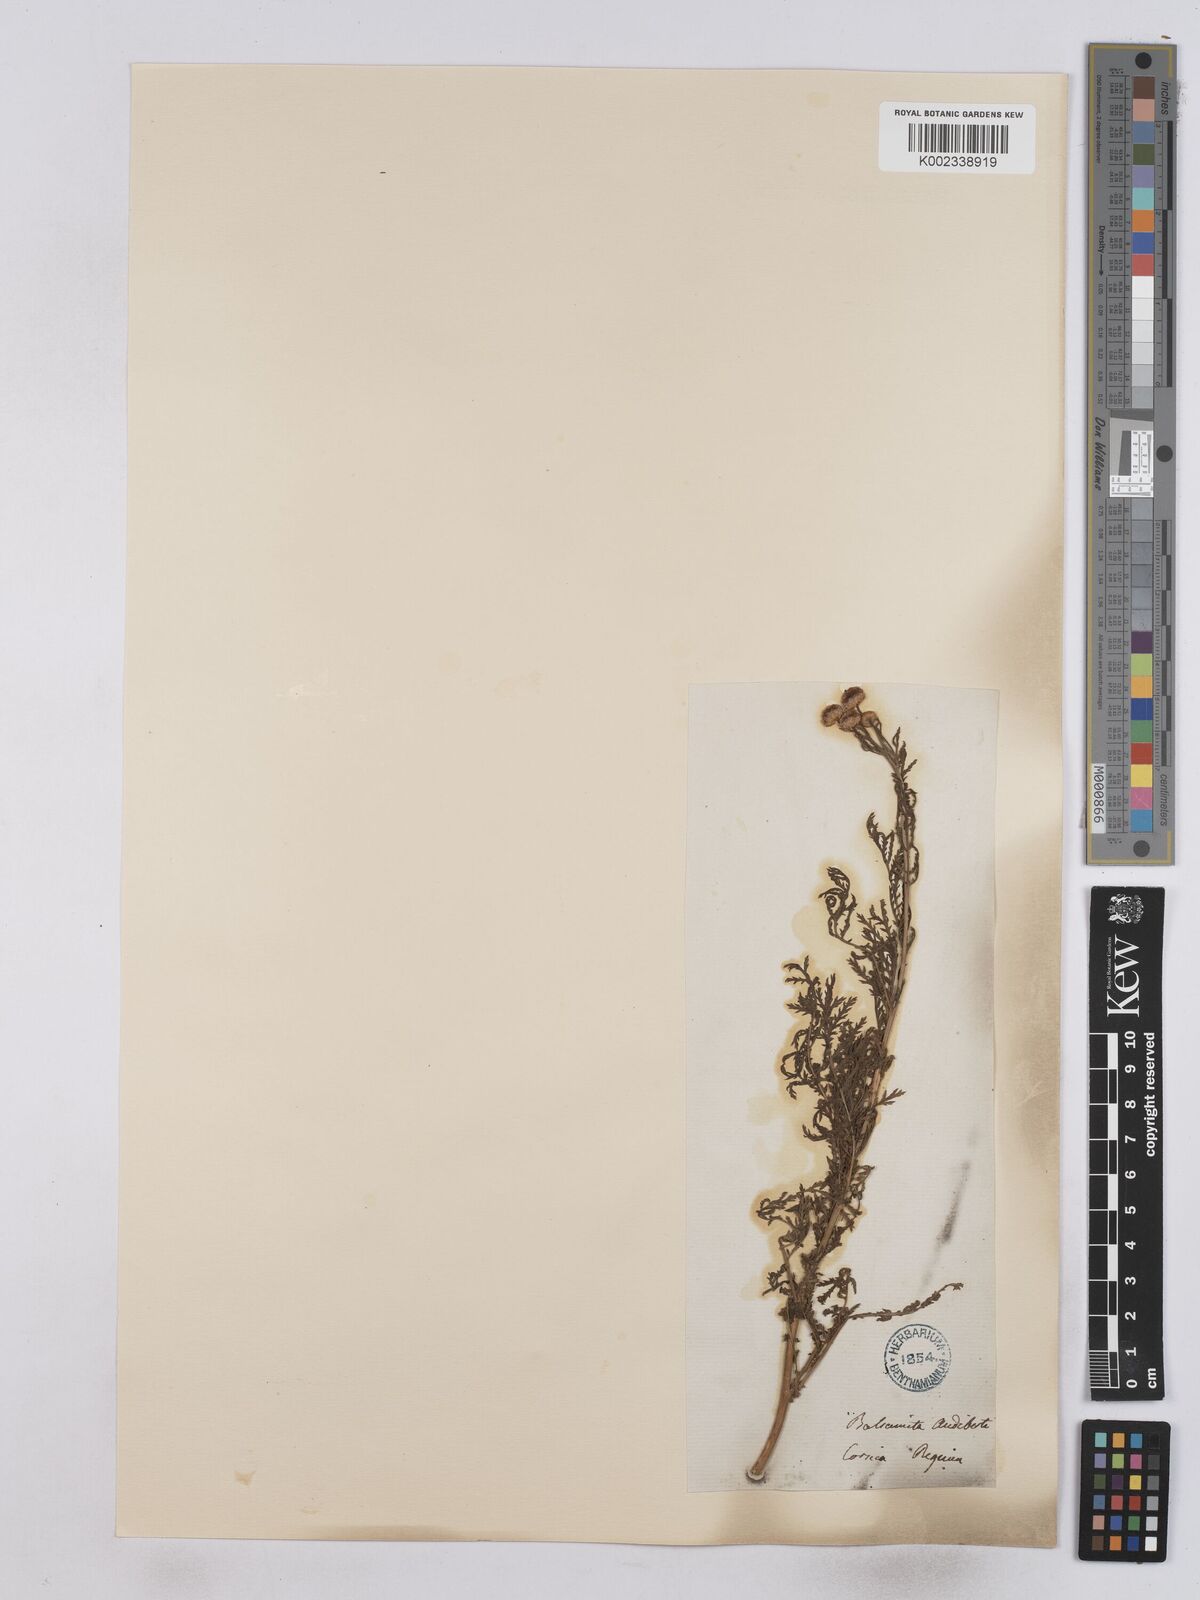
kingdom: Plantae
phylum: Tracheophyta
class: Magnoliopsida
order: Asterales
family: Asteraceae
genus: Tanacetum
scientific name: Tanacetum audibertii
